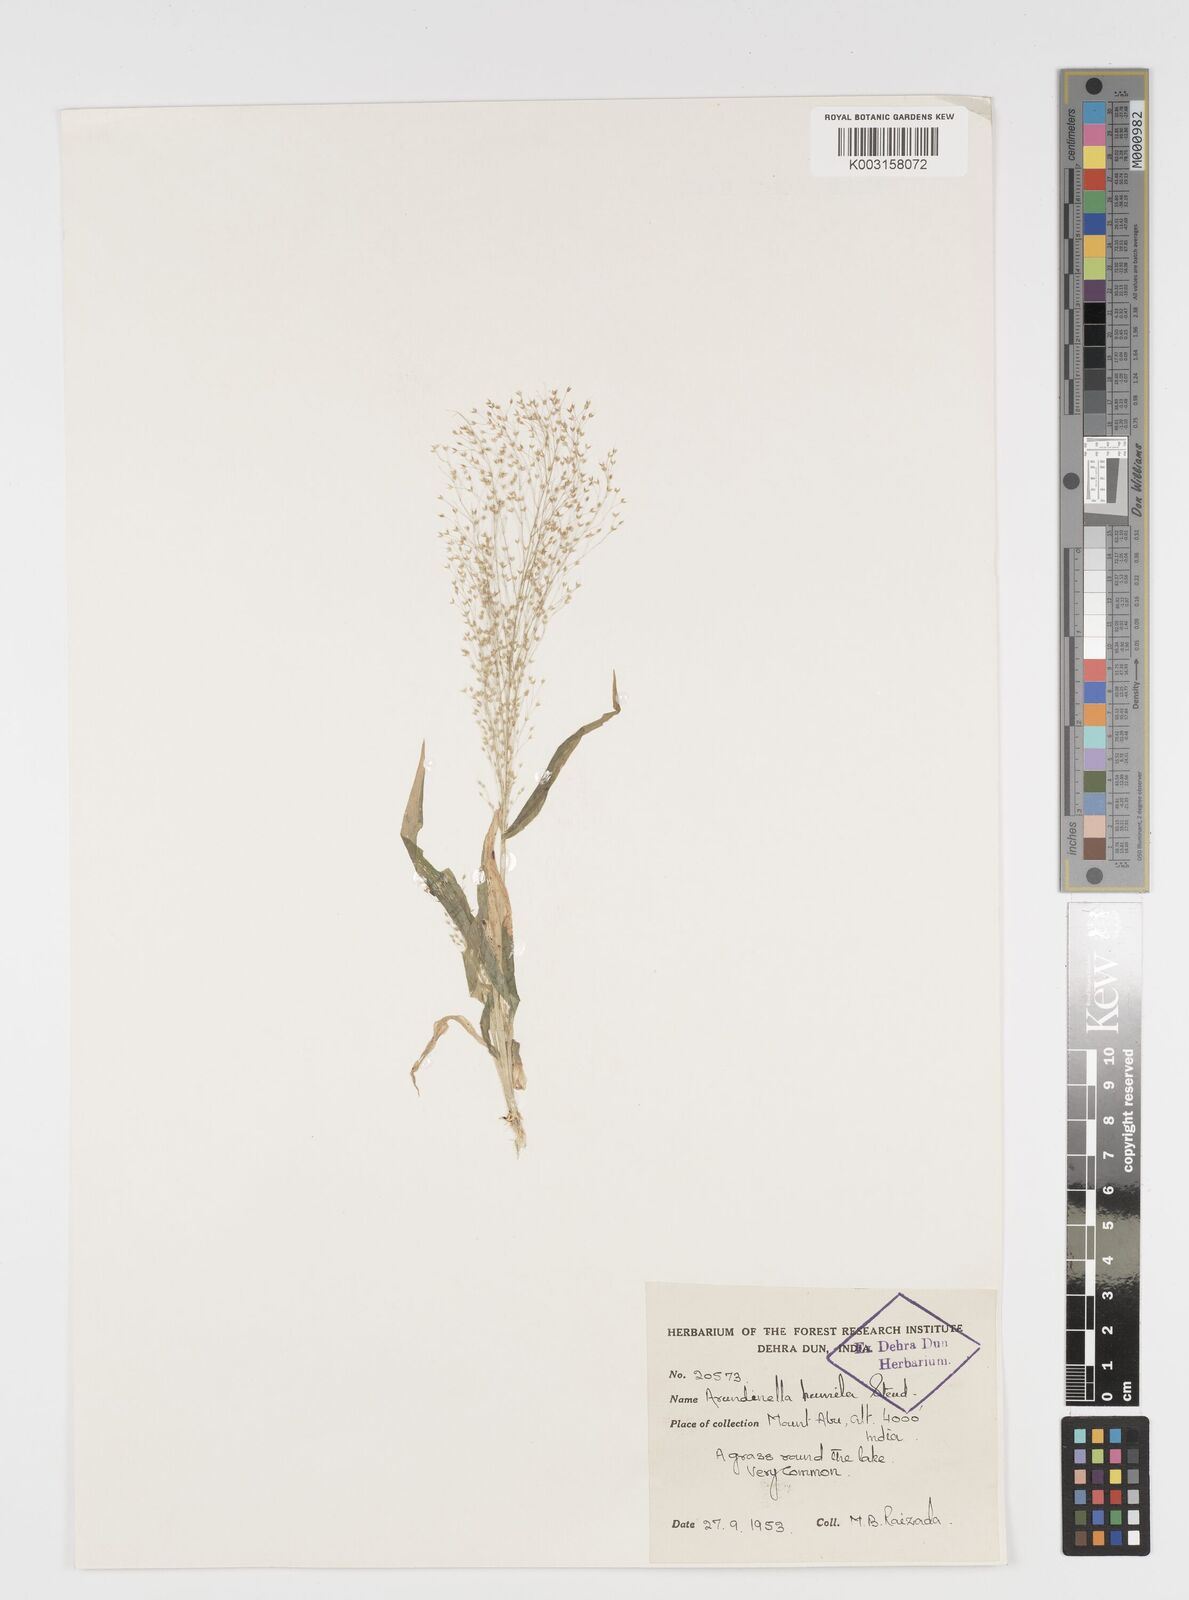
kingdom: Plantae
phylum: Tracheophyta
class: Liliopsida
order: Poales
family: Poaceae
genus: Arundinella
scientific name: Arundinella pumila
